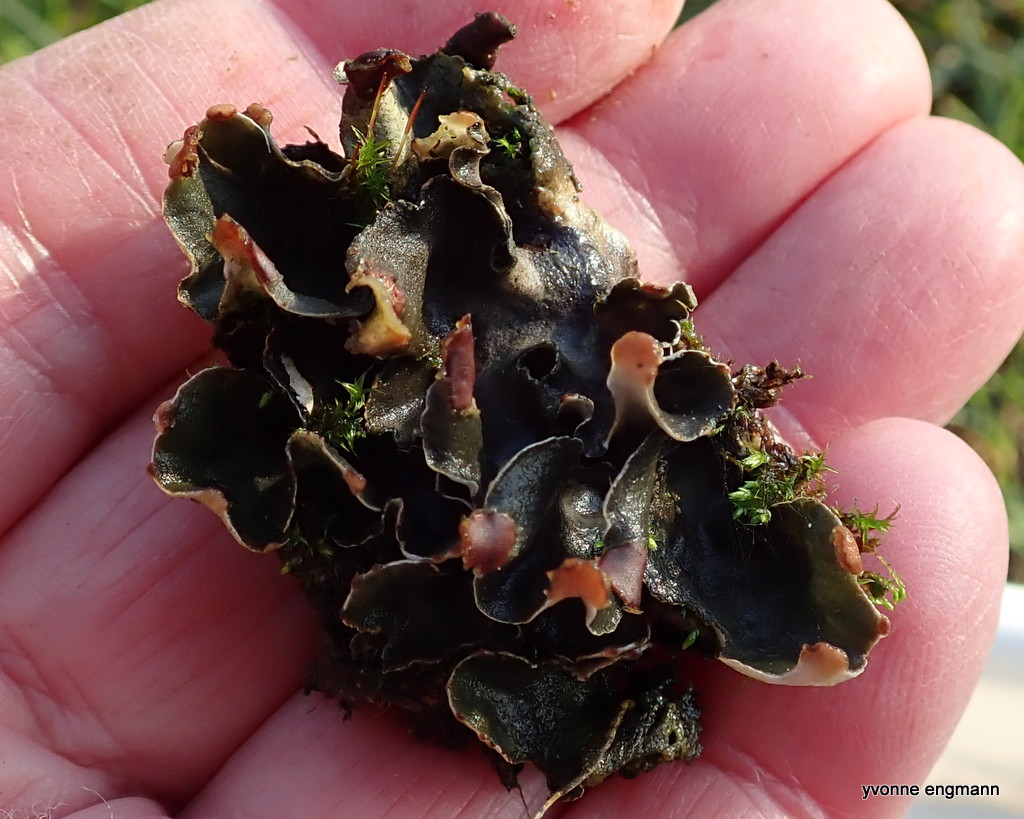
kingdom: Fungi
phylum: Ascomycota
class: Lecanoromycetes
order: Peltigerales
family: Peltigeraceae
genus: Peltigera
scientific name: Peltigera didactyla
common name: liden skjoldlav
